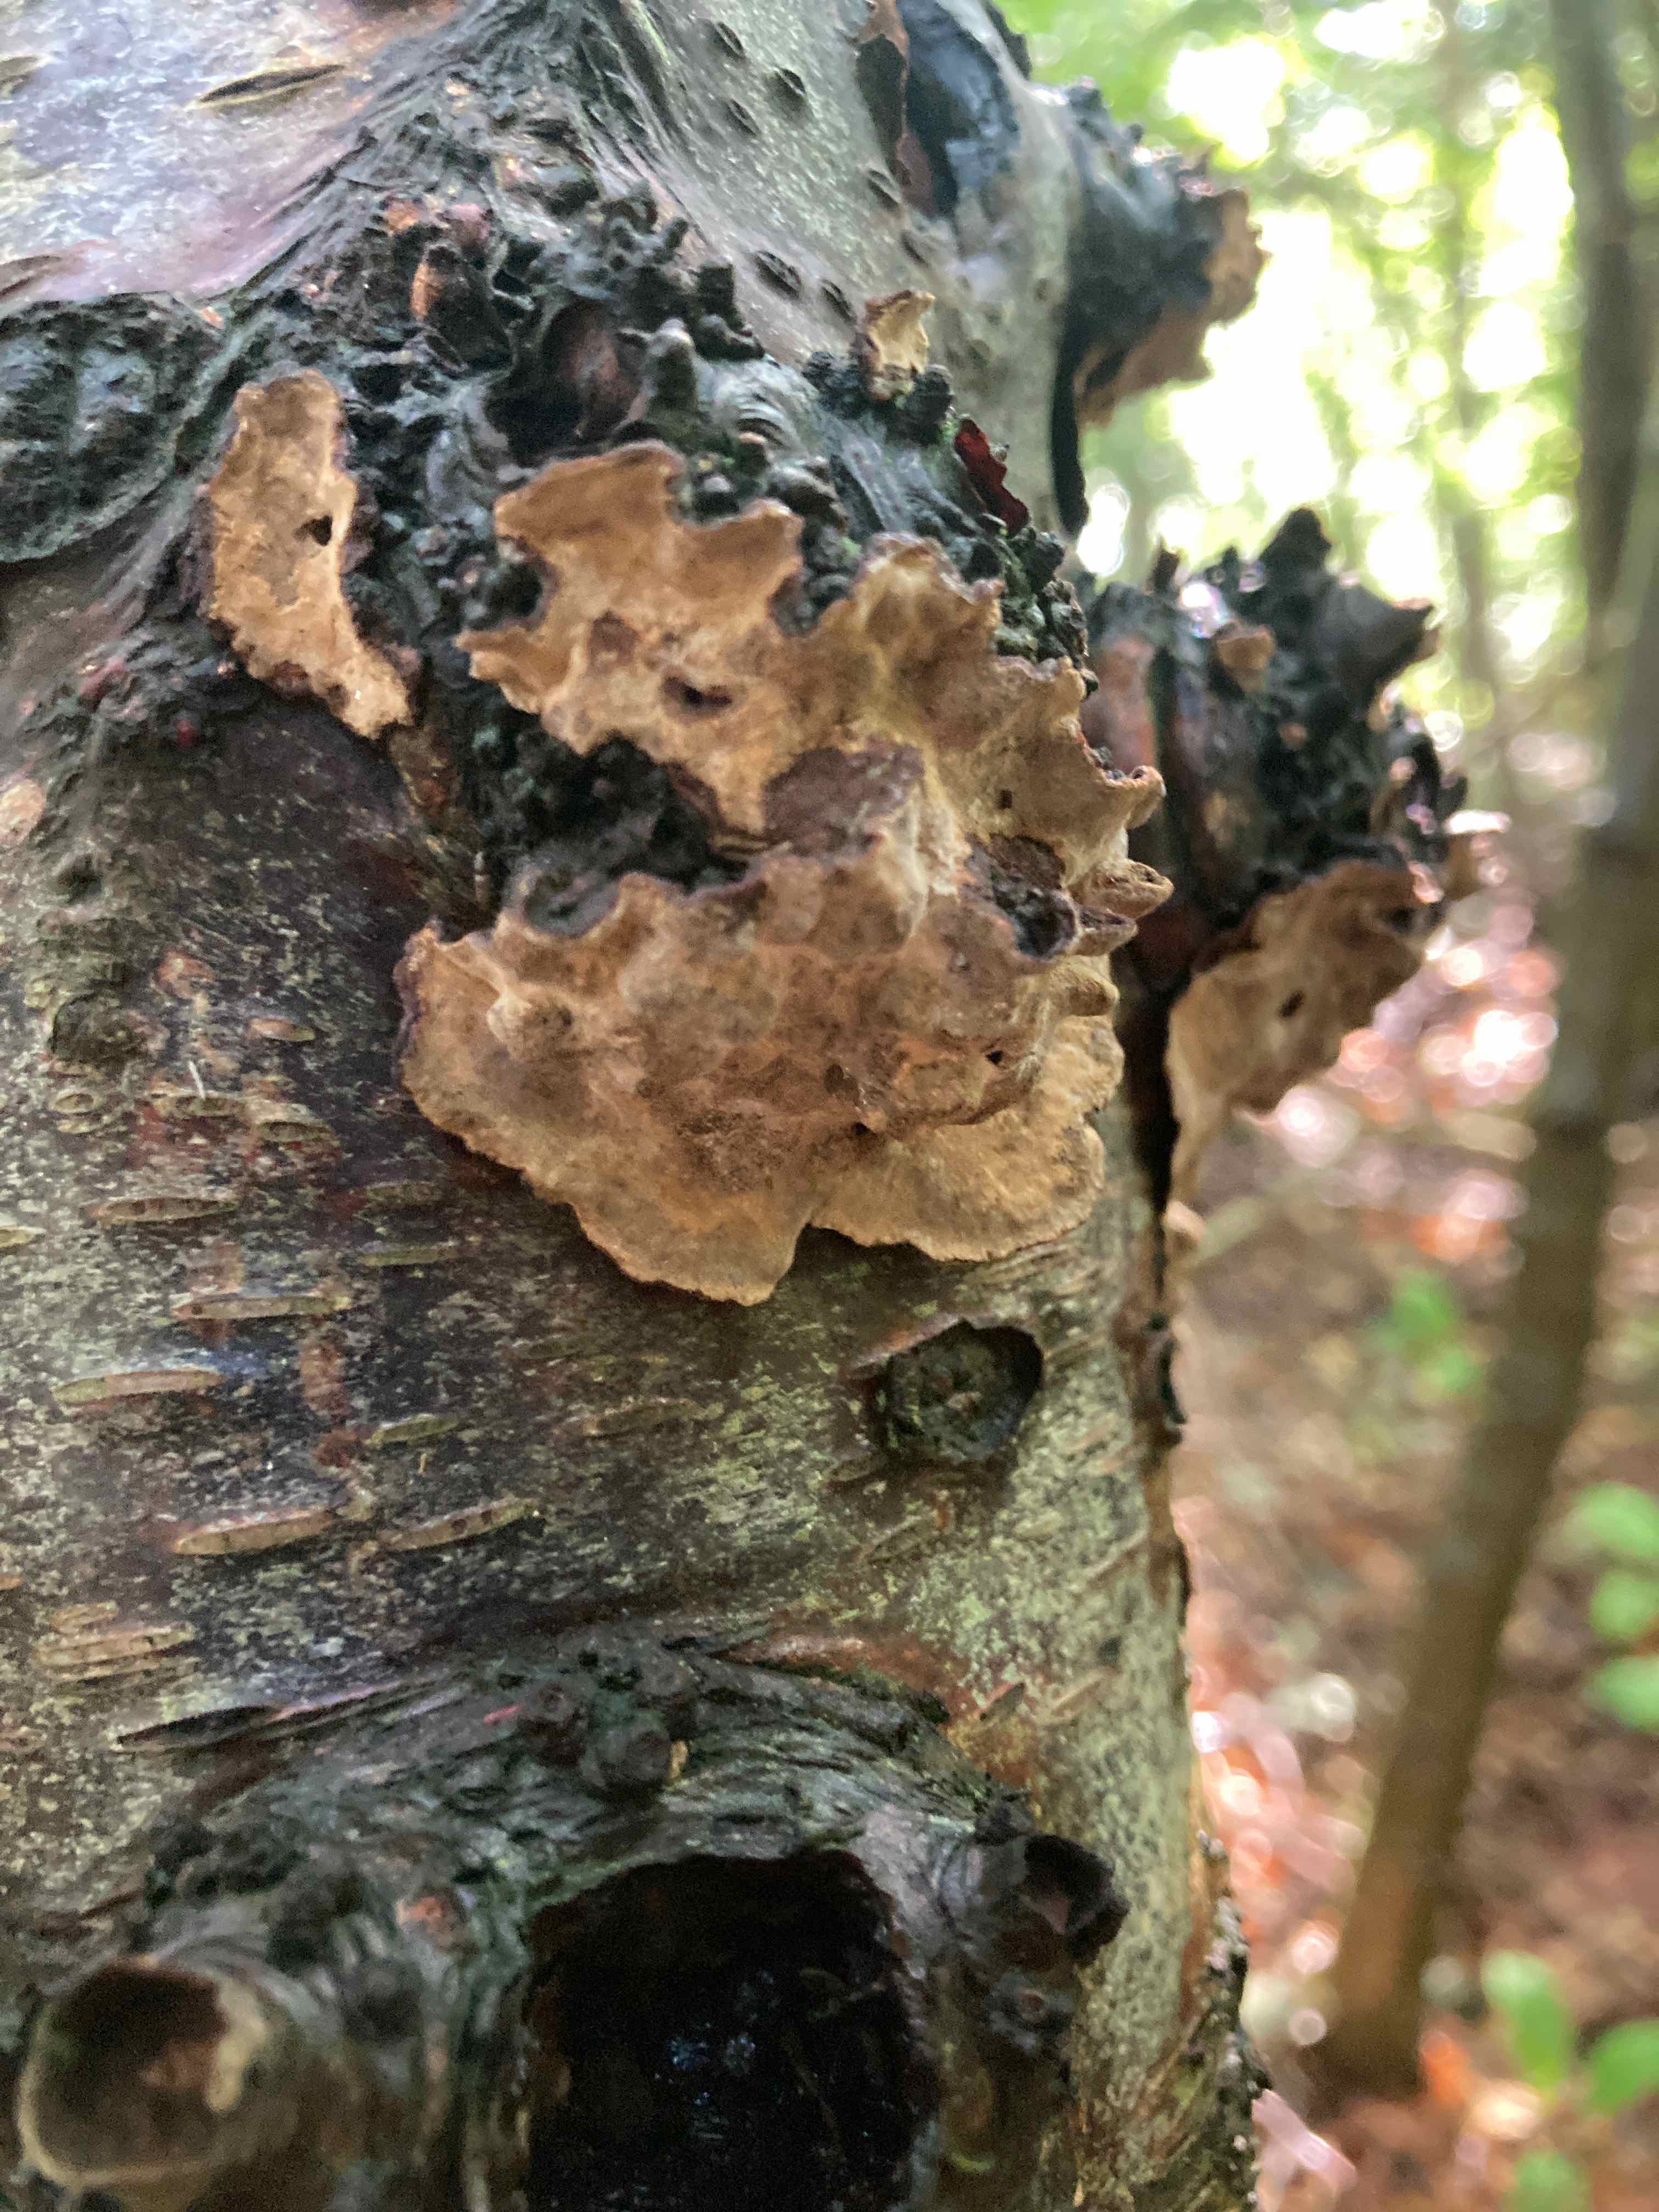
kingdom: Fungi
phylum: Basidiomycota
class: Agaricomycetes
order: Russulales
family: Stereaceae
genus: Stereum
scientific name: Stereum rugosum
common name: rynket lædersvamp
